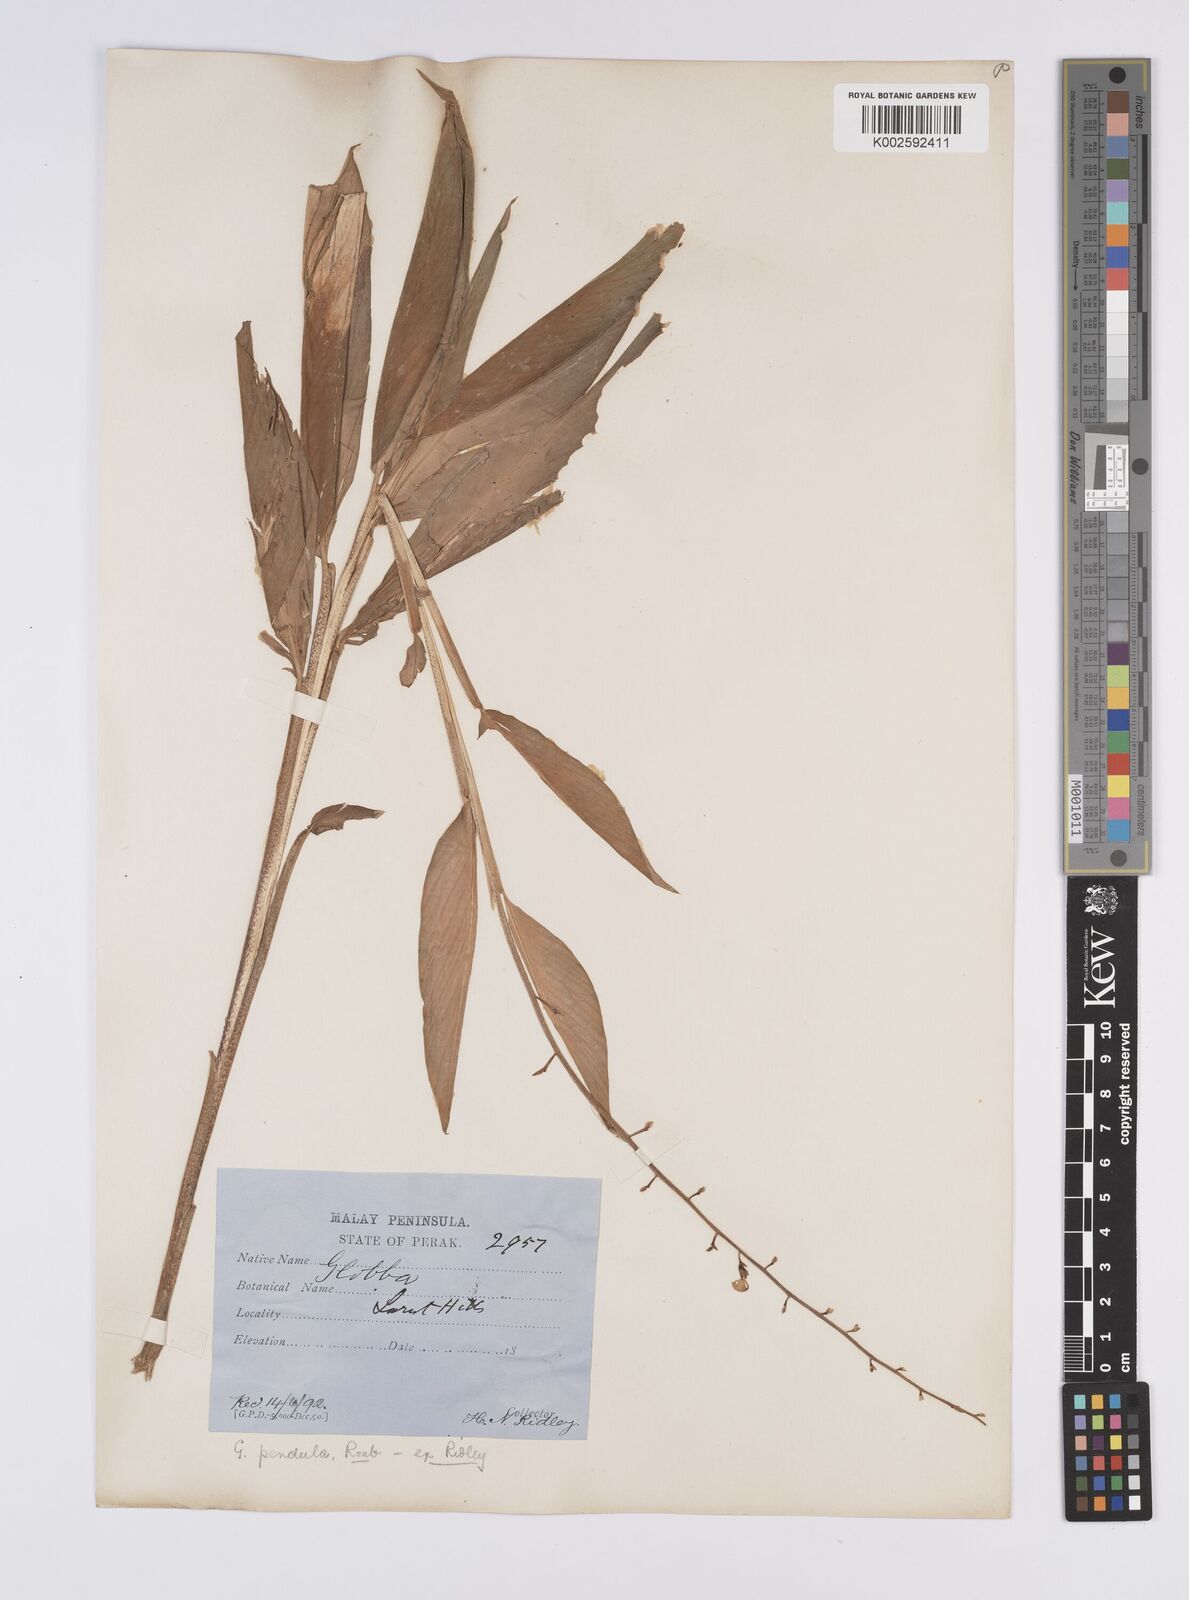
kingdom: Plantae
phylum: Tracheophyta
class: Liliopsida
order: Zingiberales
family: Zingiberaceae
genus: Globba
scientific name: Globba pendula
